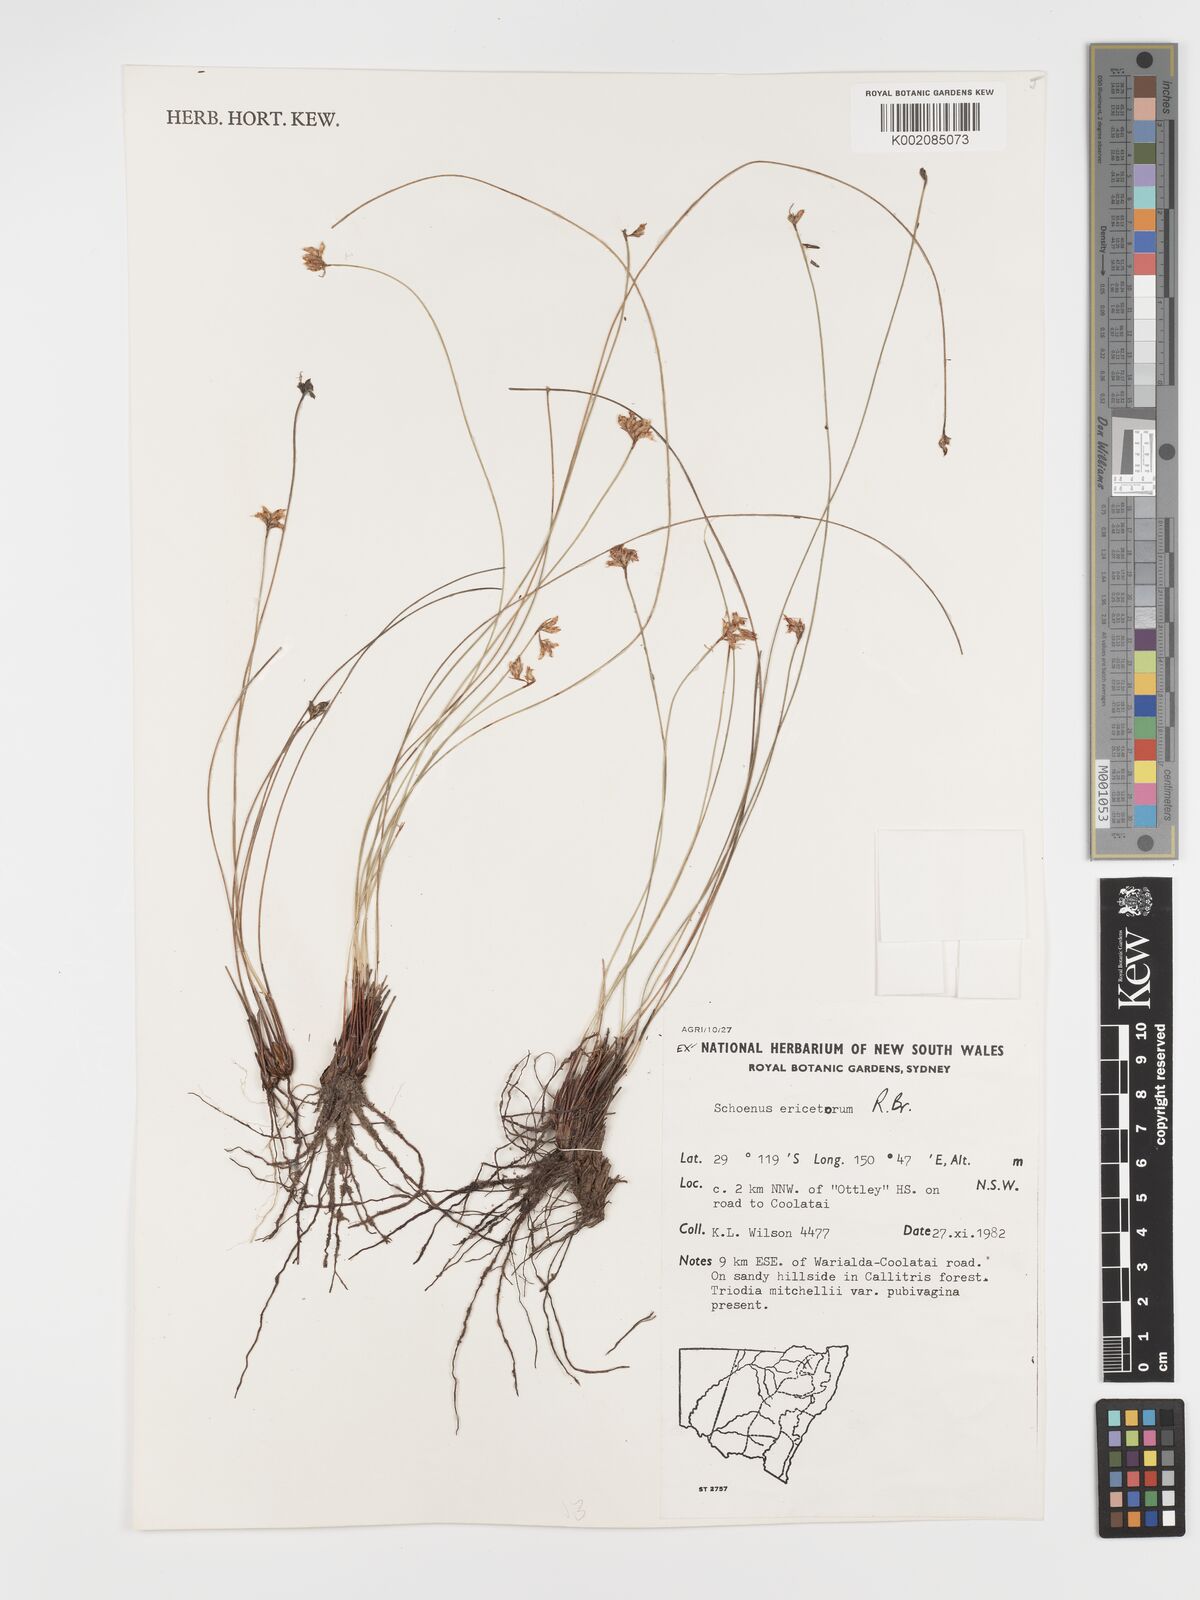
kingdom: Plantae
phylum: Tracheophyta
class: Liliopsida
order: Poales
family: Cyperaceae
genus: Schoenus
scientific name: Schoenus ericetorum
